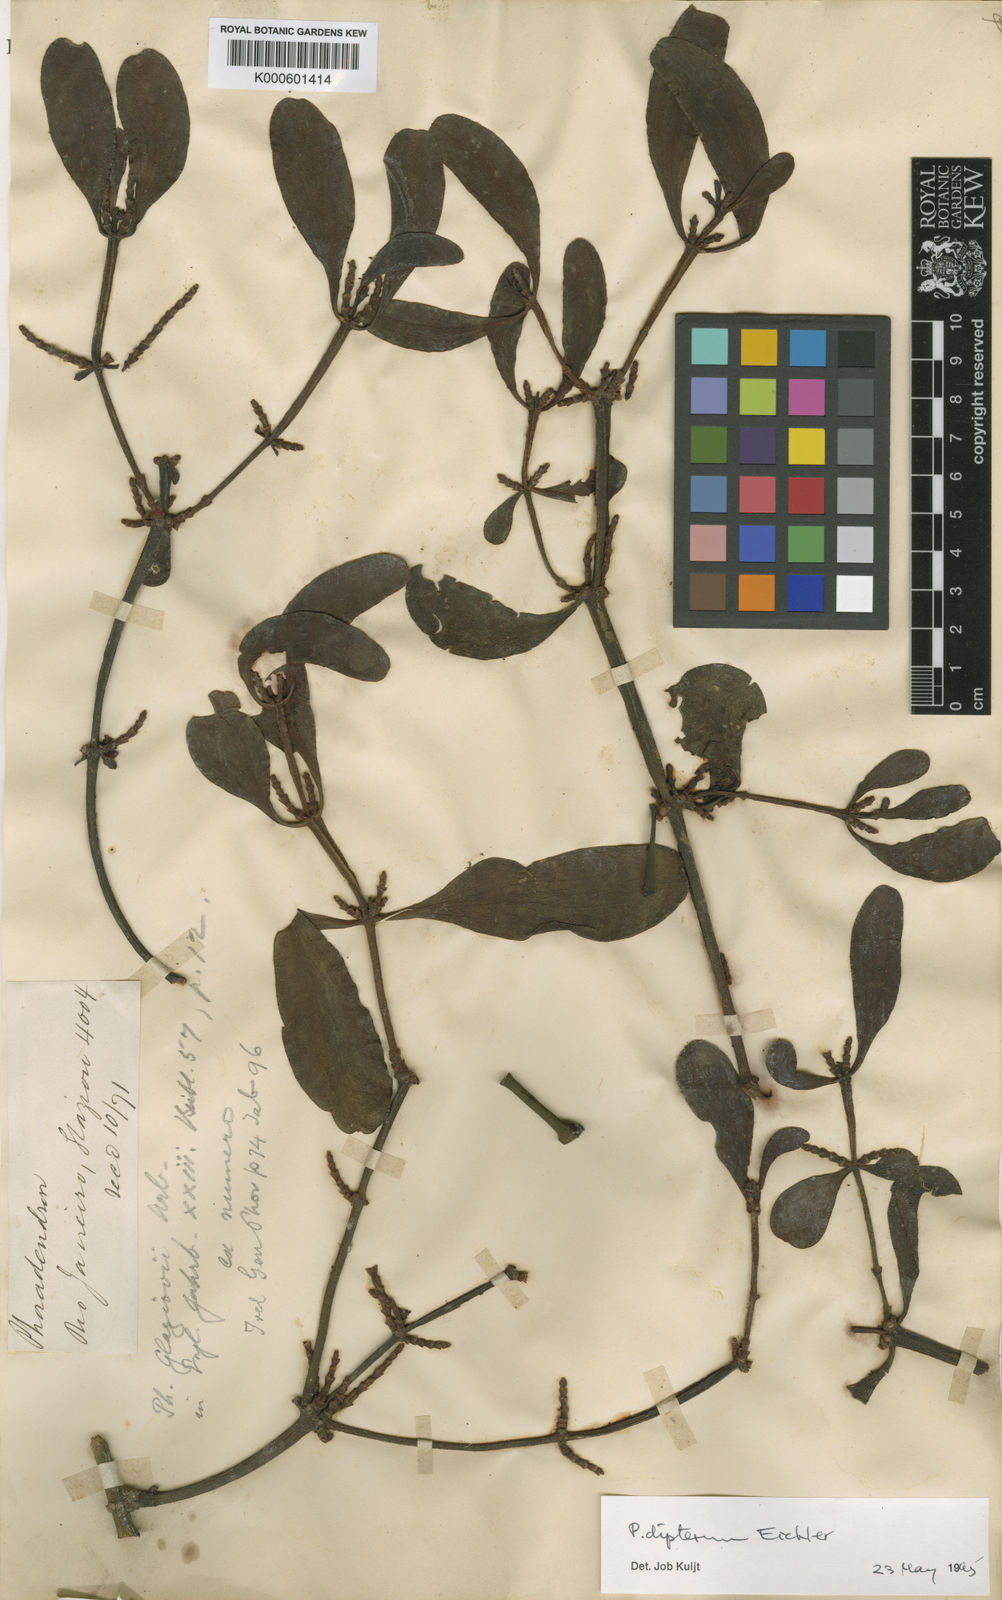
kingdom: Plantae
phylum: Tracheophyta
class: Magnoliopsida
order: Santalales
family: Viscaceae
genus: Phoradendron
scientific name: Phoradendron dipterum
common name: Fourpart mistletoe
